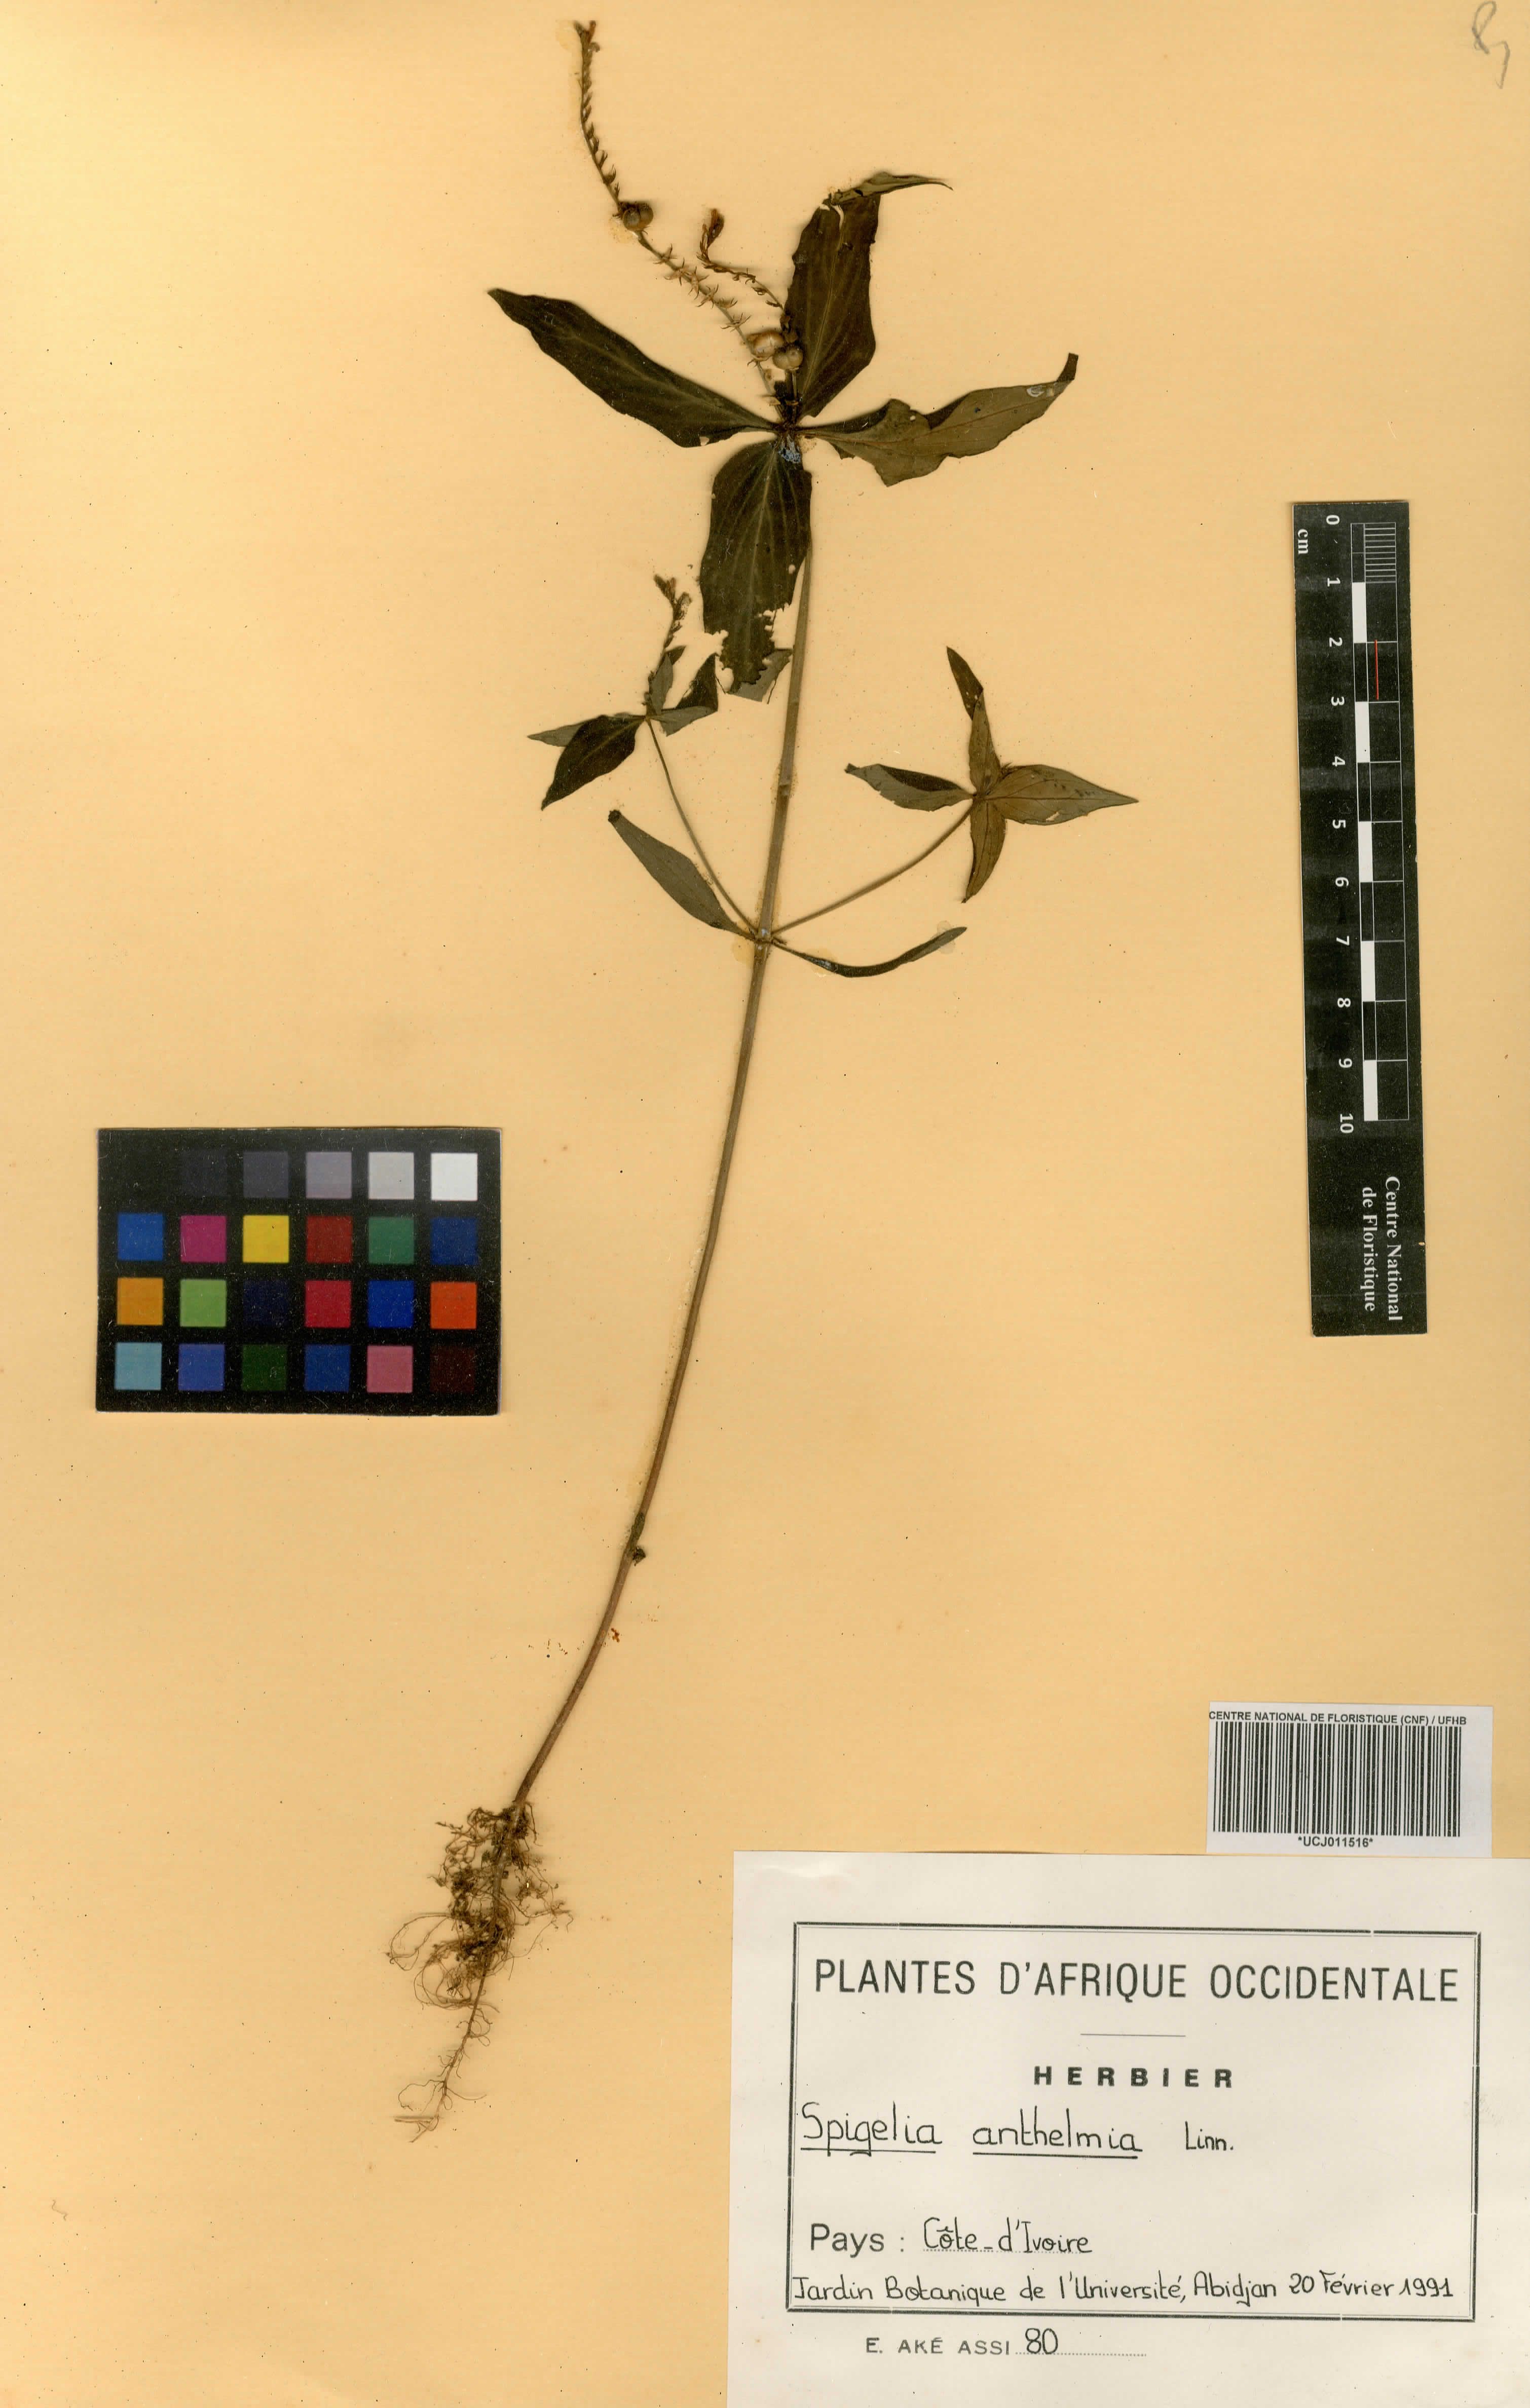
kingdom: Plantae
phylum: Tracheophyta
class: Magnoliopsida
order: Gentianales
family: Loganiaceae
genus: Spigelia
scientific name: Spigelia anthelmia
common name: West indian-pink
